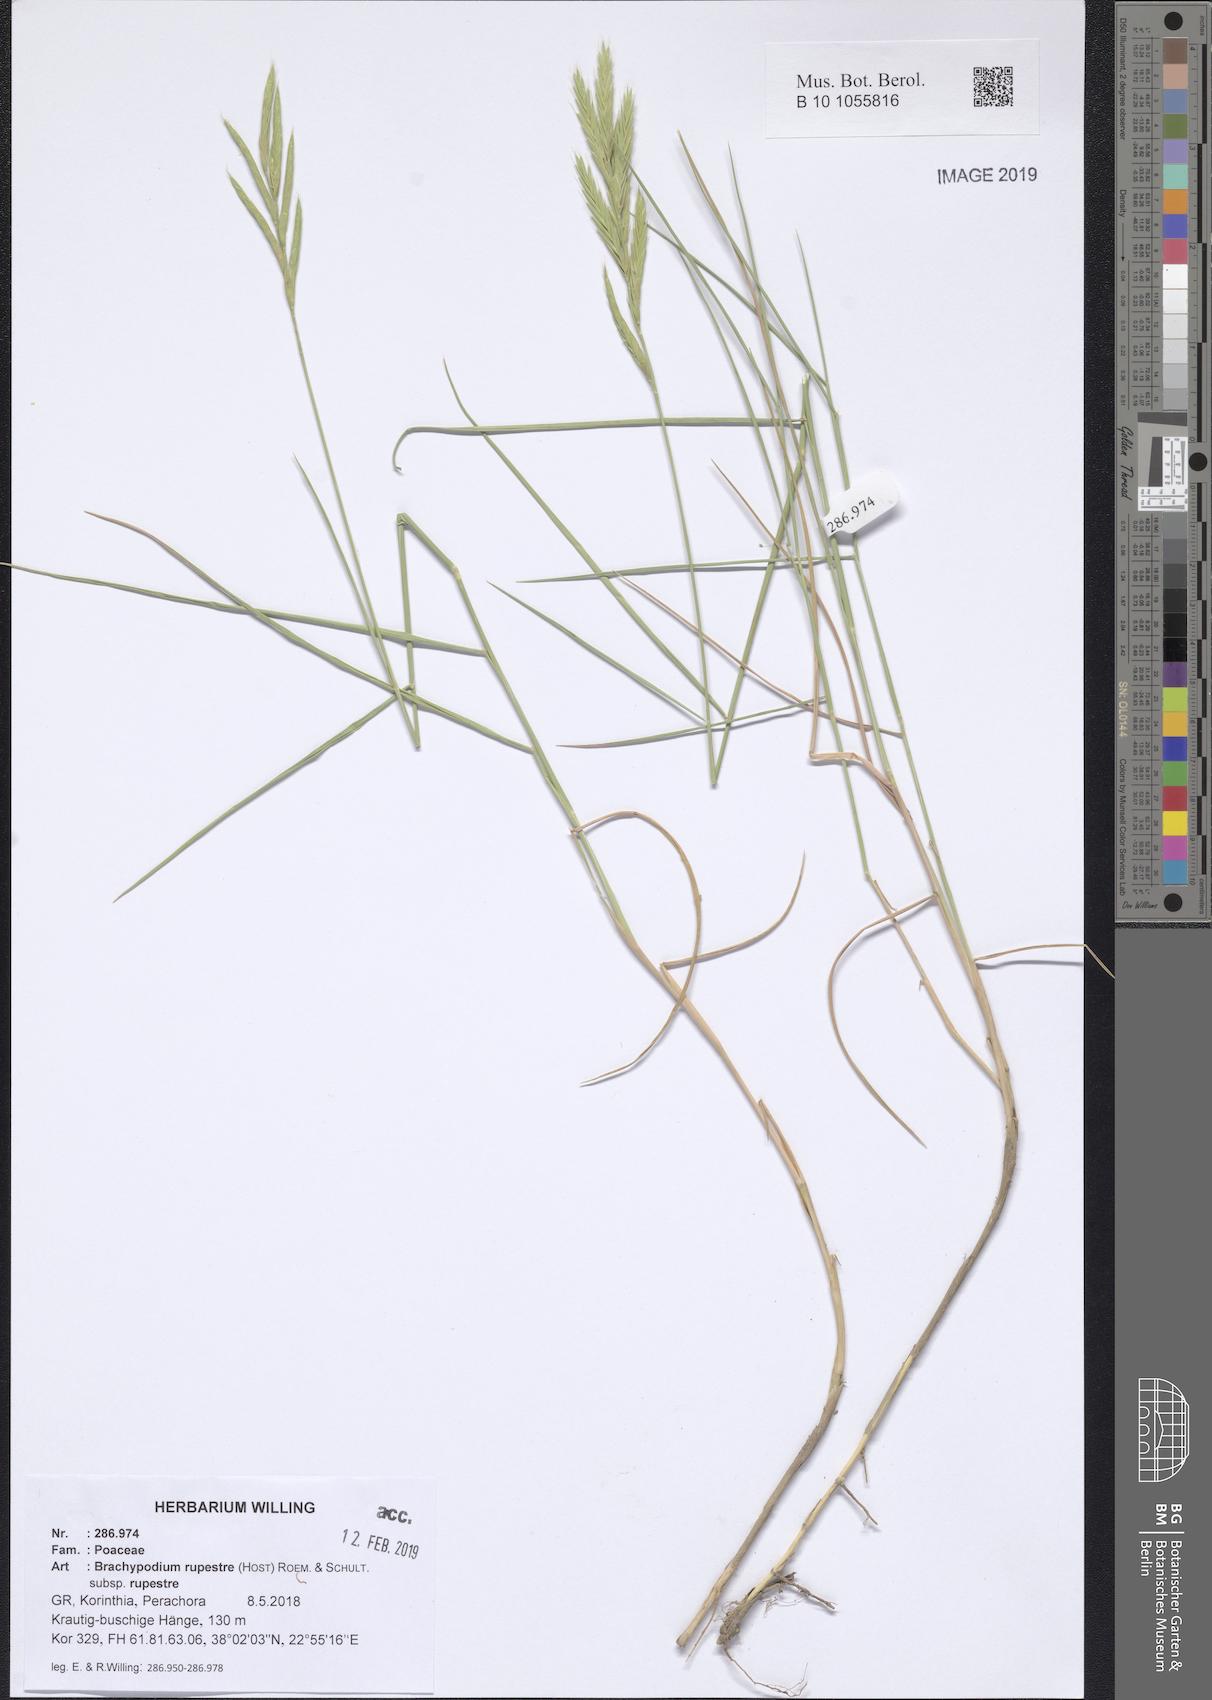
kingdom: Plantae
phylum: Tracheophyta
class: Liliopsida
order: Poales
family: Poaceae
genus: Brachypodium
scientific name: Brachypodium pinnatum
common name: Tor grass
